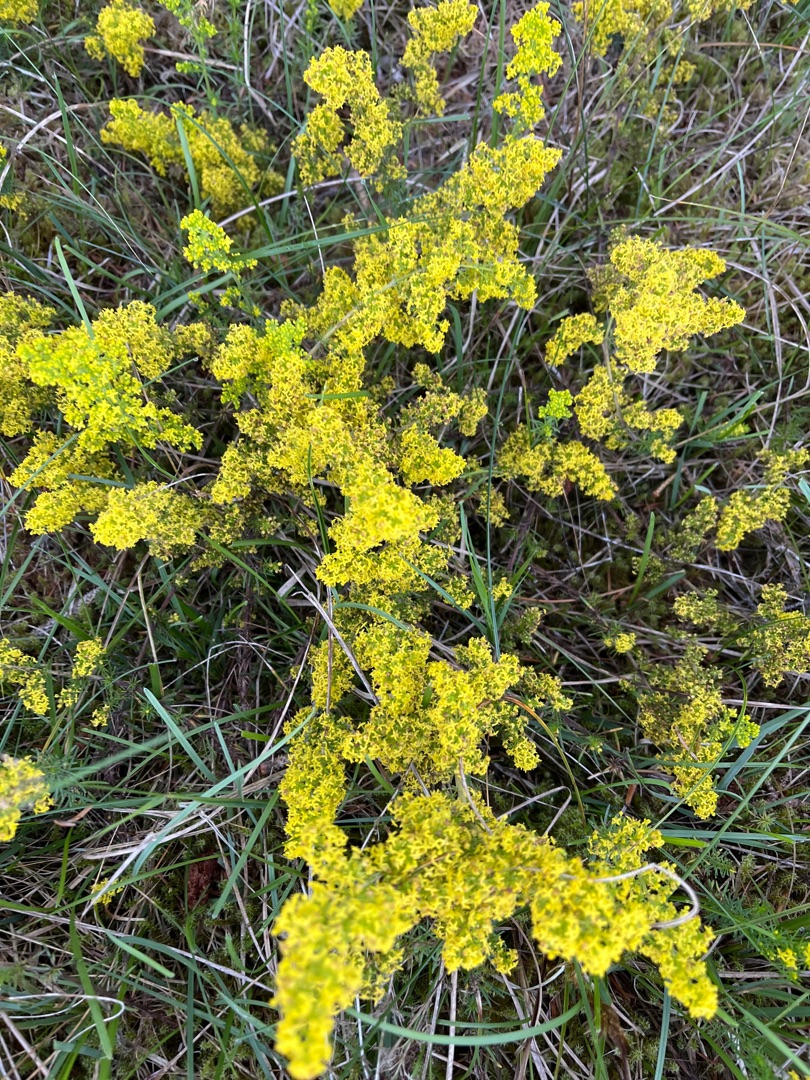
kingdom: Plantae
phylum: Tracheophyta
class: Magnoliopsida
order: Gentianales
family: Rubiaceae
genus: Galium
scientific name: Galium verum
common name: Gul snerre
